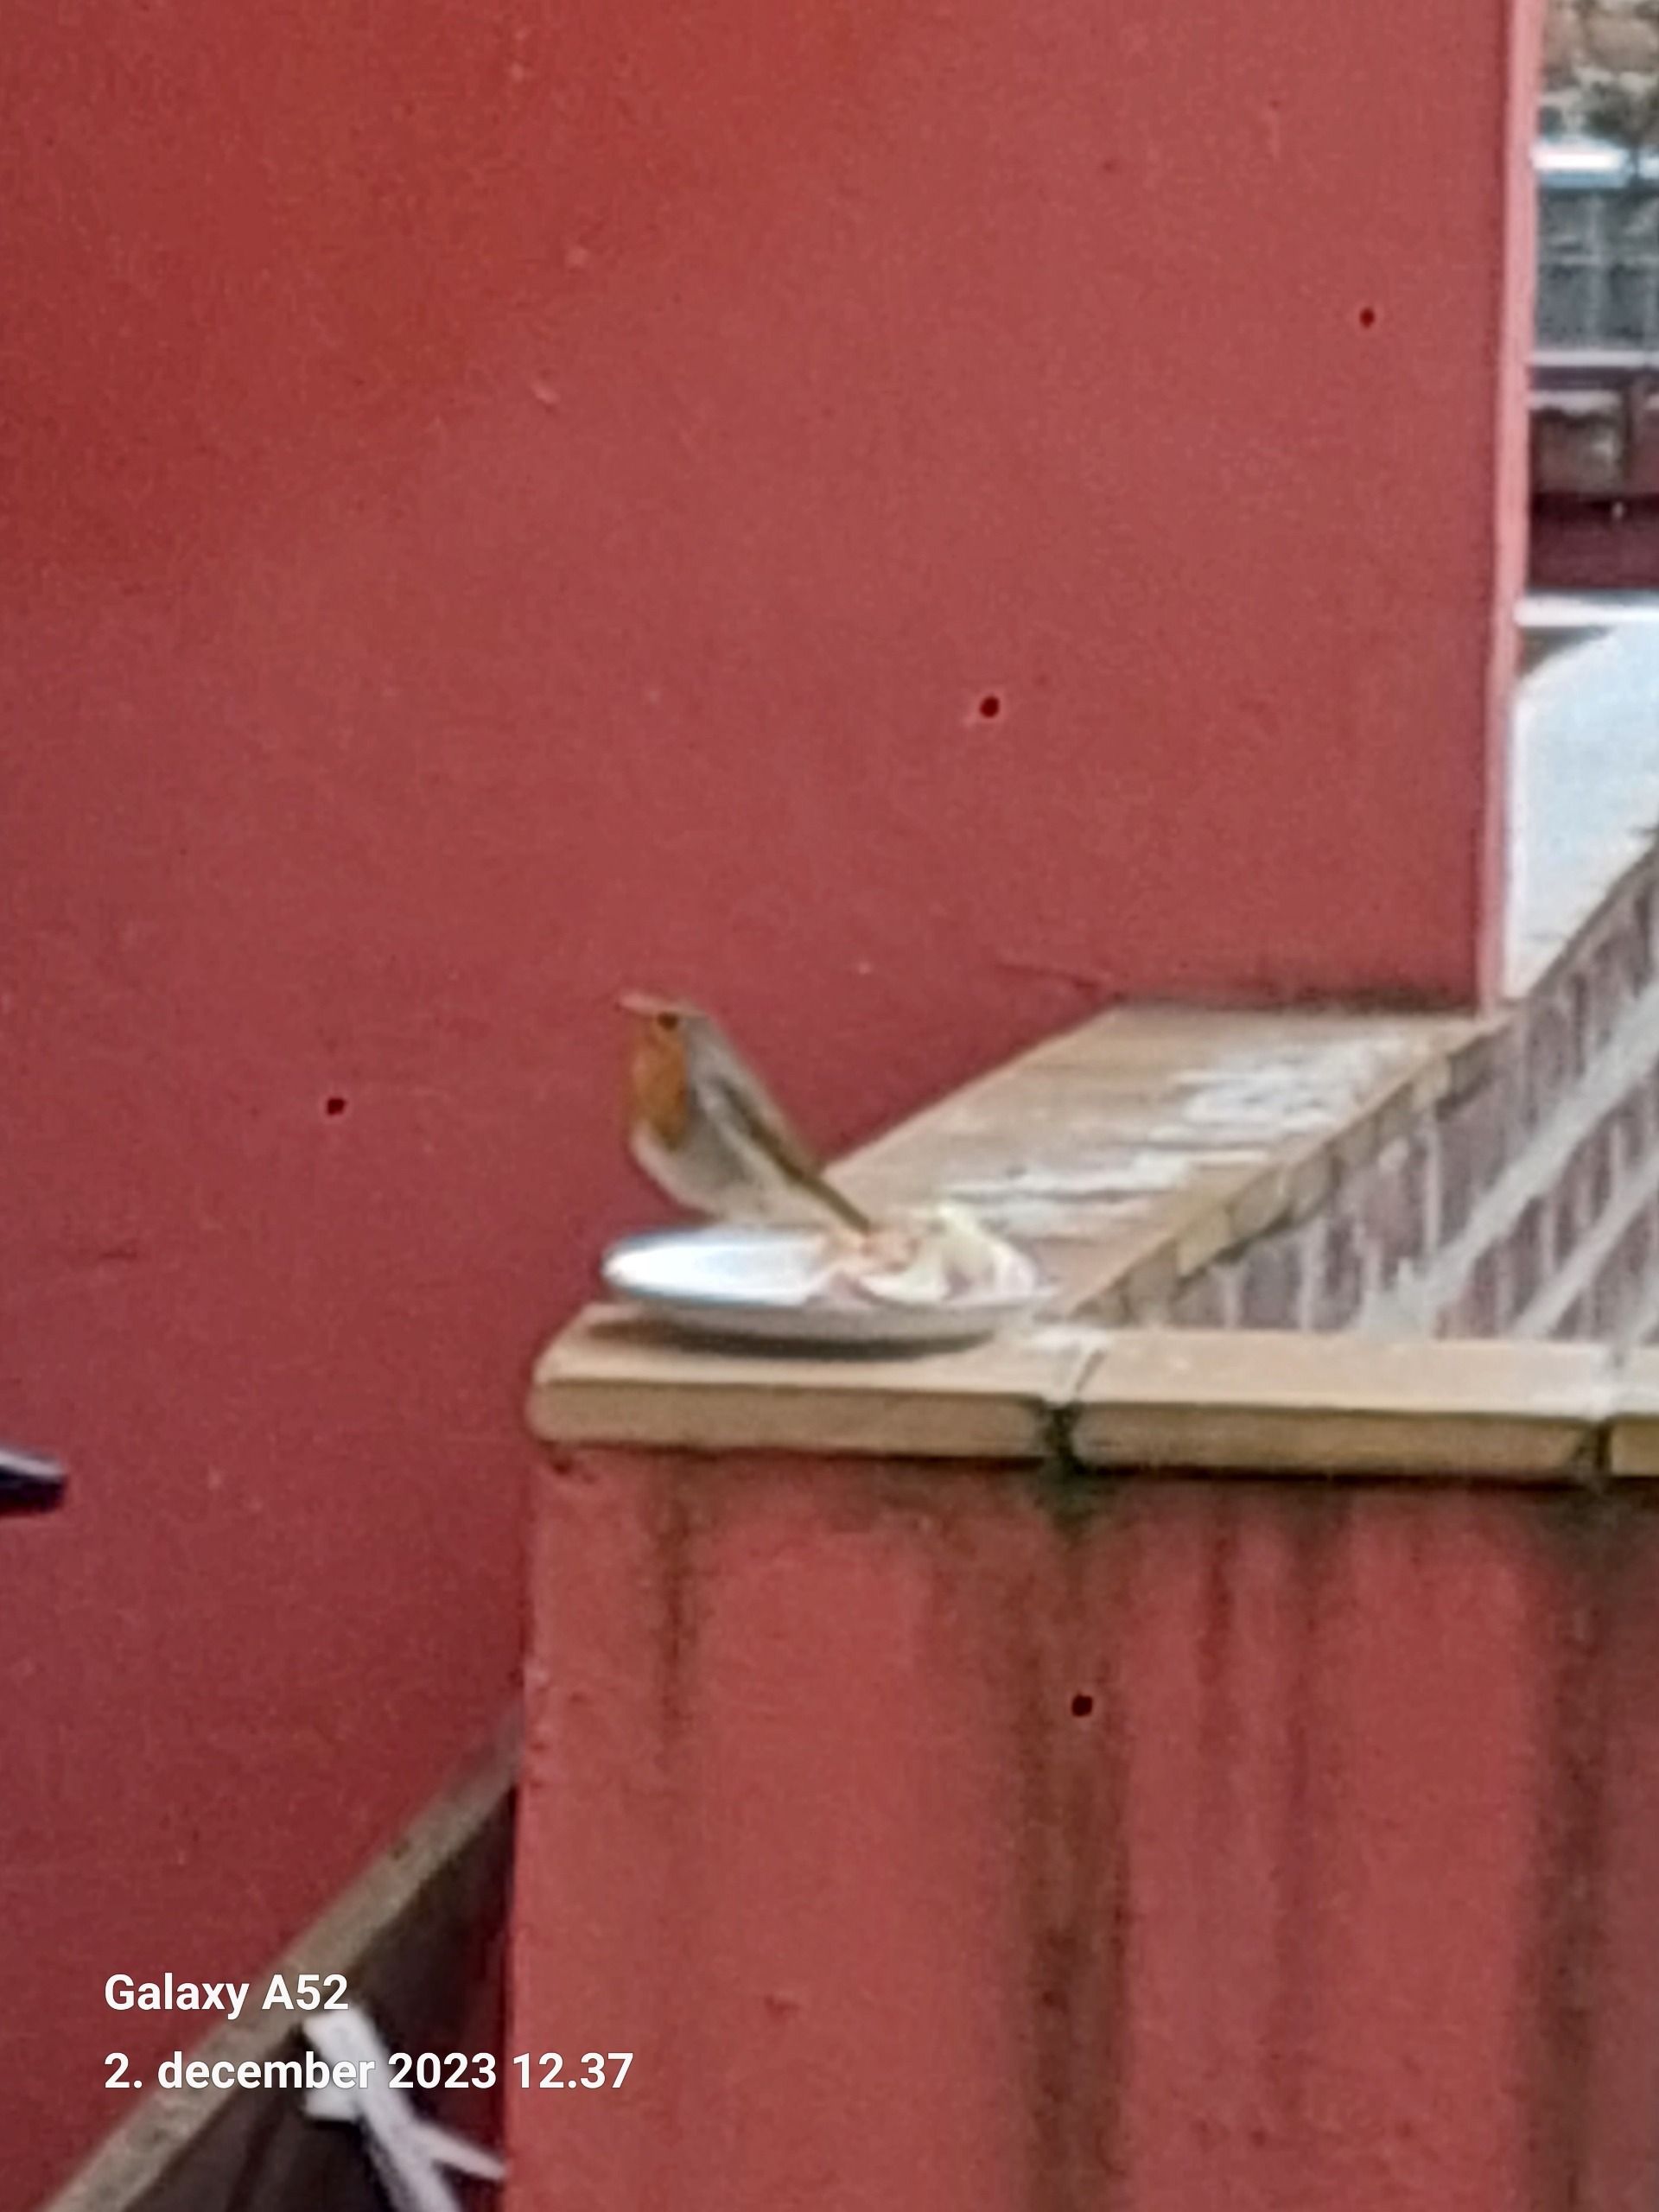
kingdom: Animalia
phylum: Chordata
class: Aves
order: Passeriformes
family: Muscicapidae
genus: Erithacus
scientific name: Erithacus rubecula
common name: Rødhals/rødkælk
